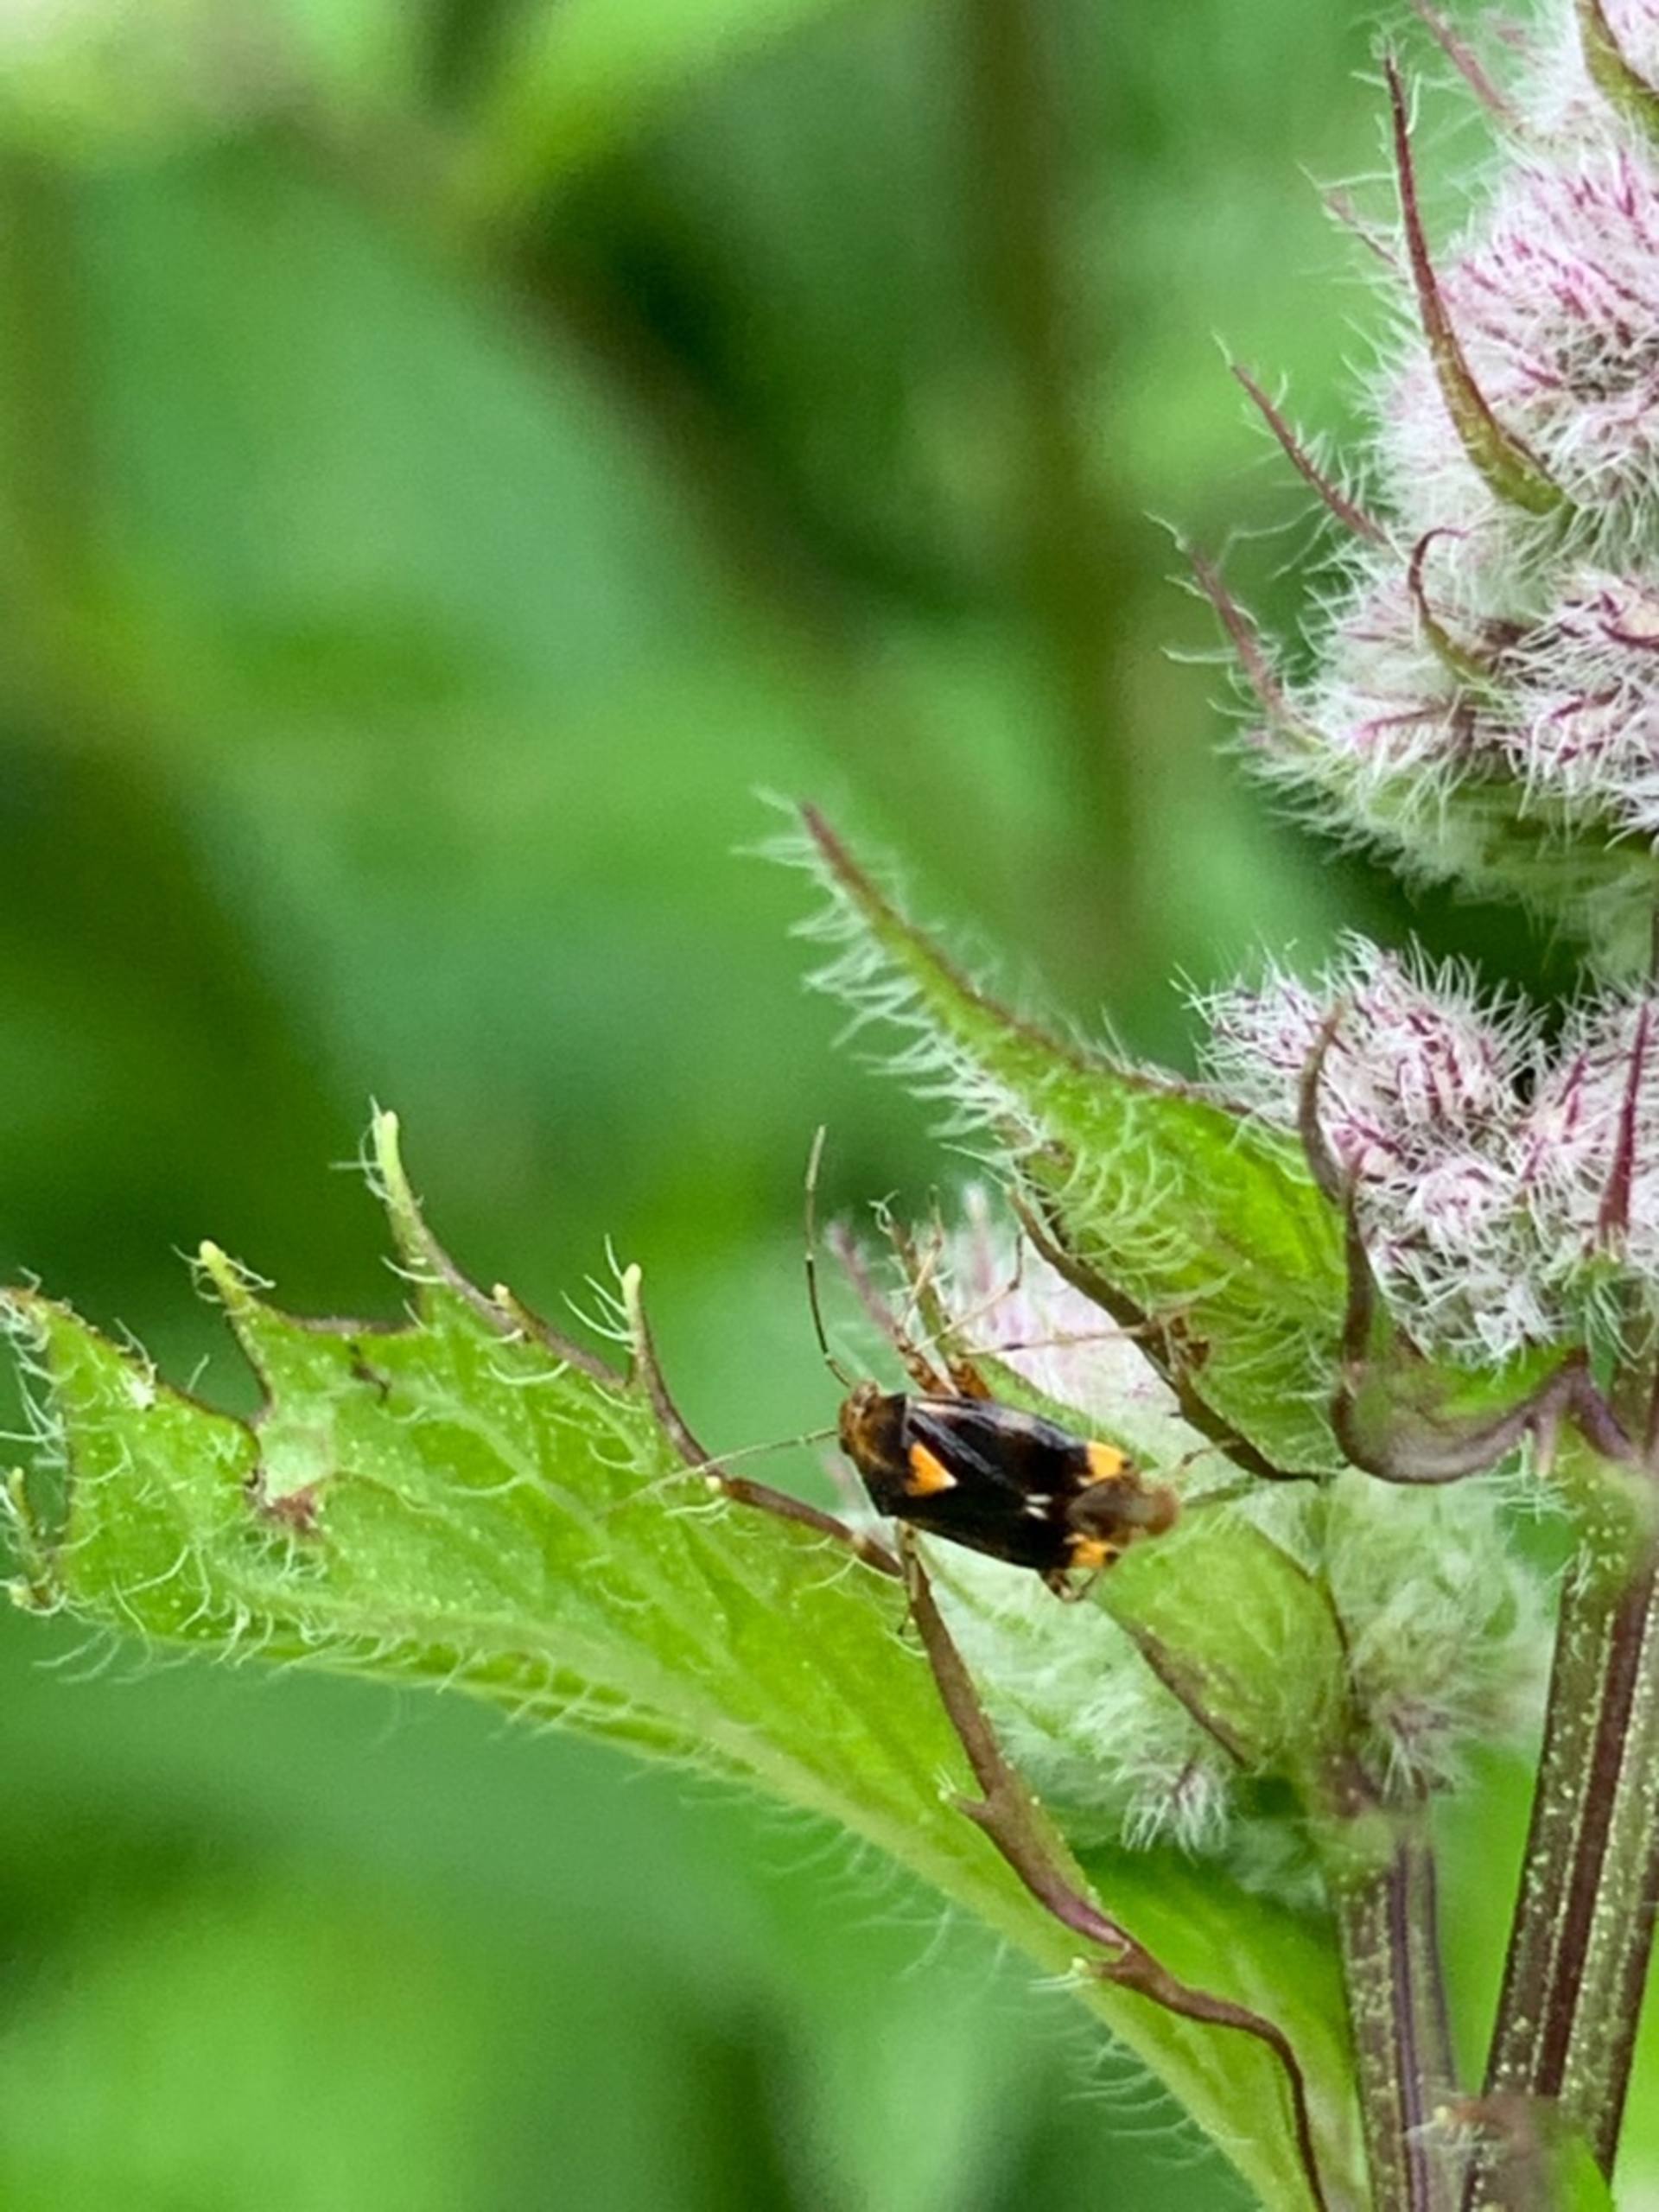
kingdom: Animalia
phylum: Arthropoda
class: Insecta
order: Hemiptera
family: Miridae
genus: Liocoris
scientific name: Liocoris tripustulatus
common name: Treplettet nældetæge
